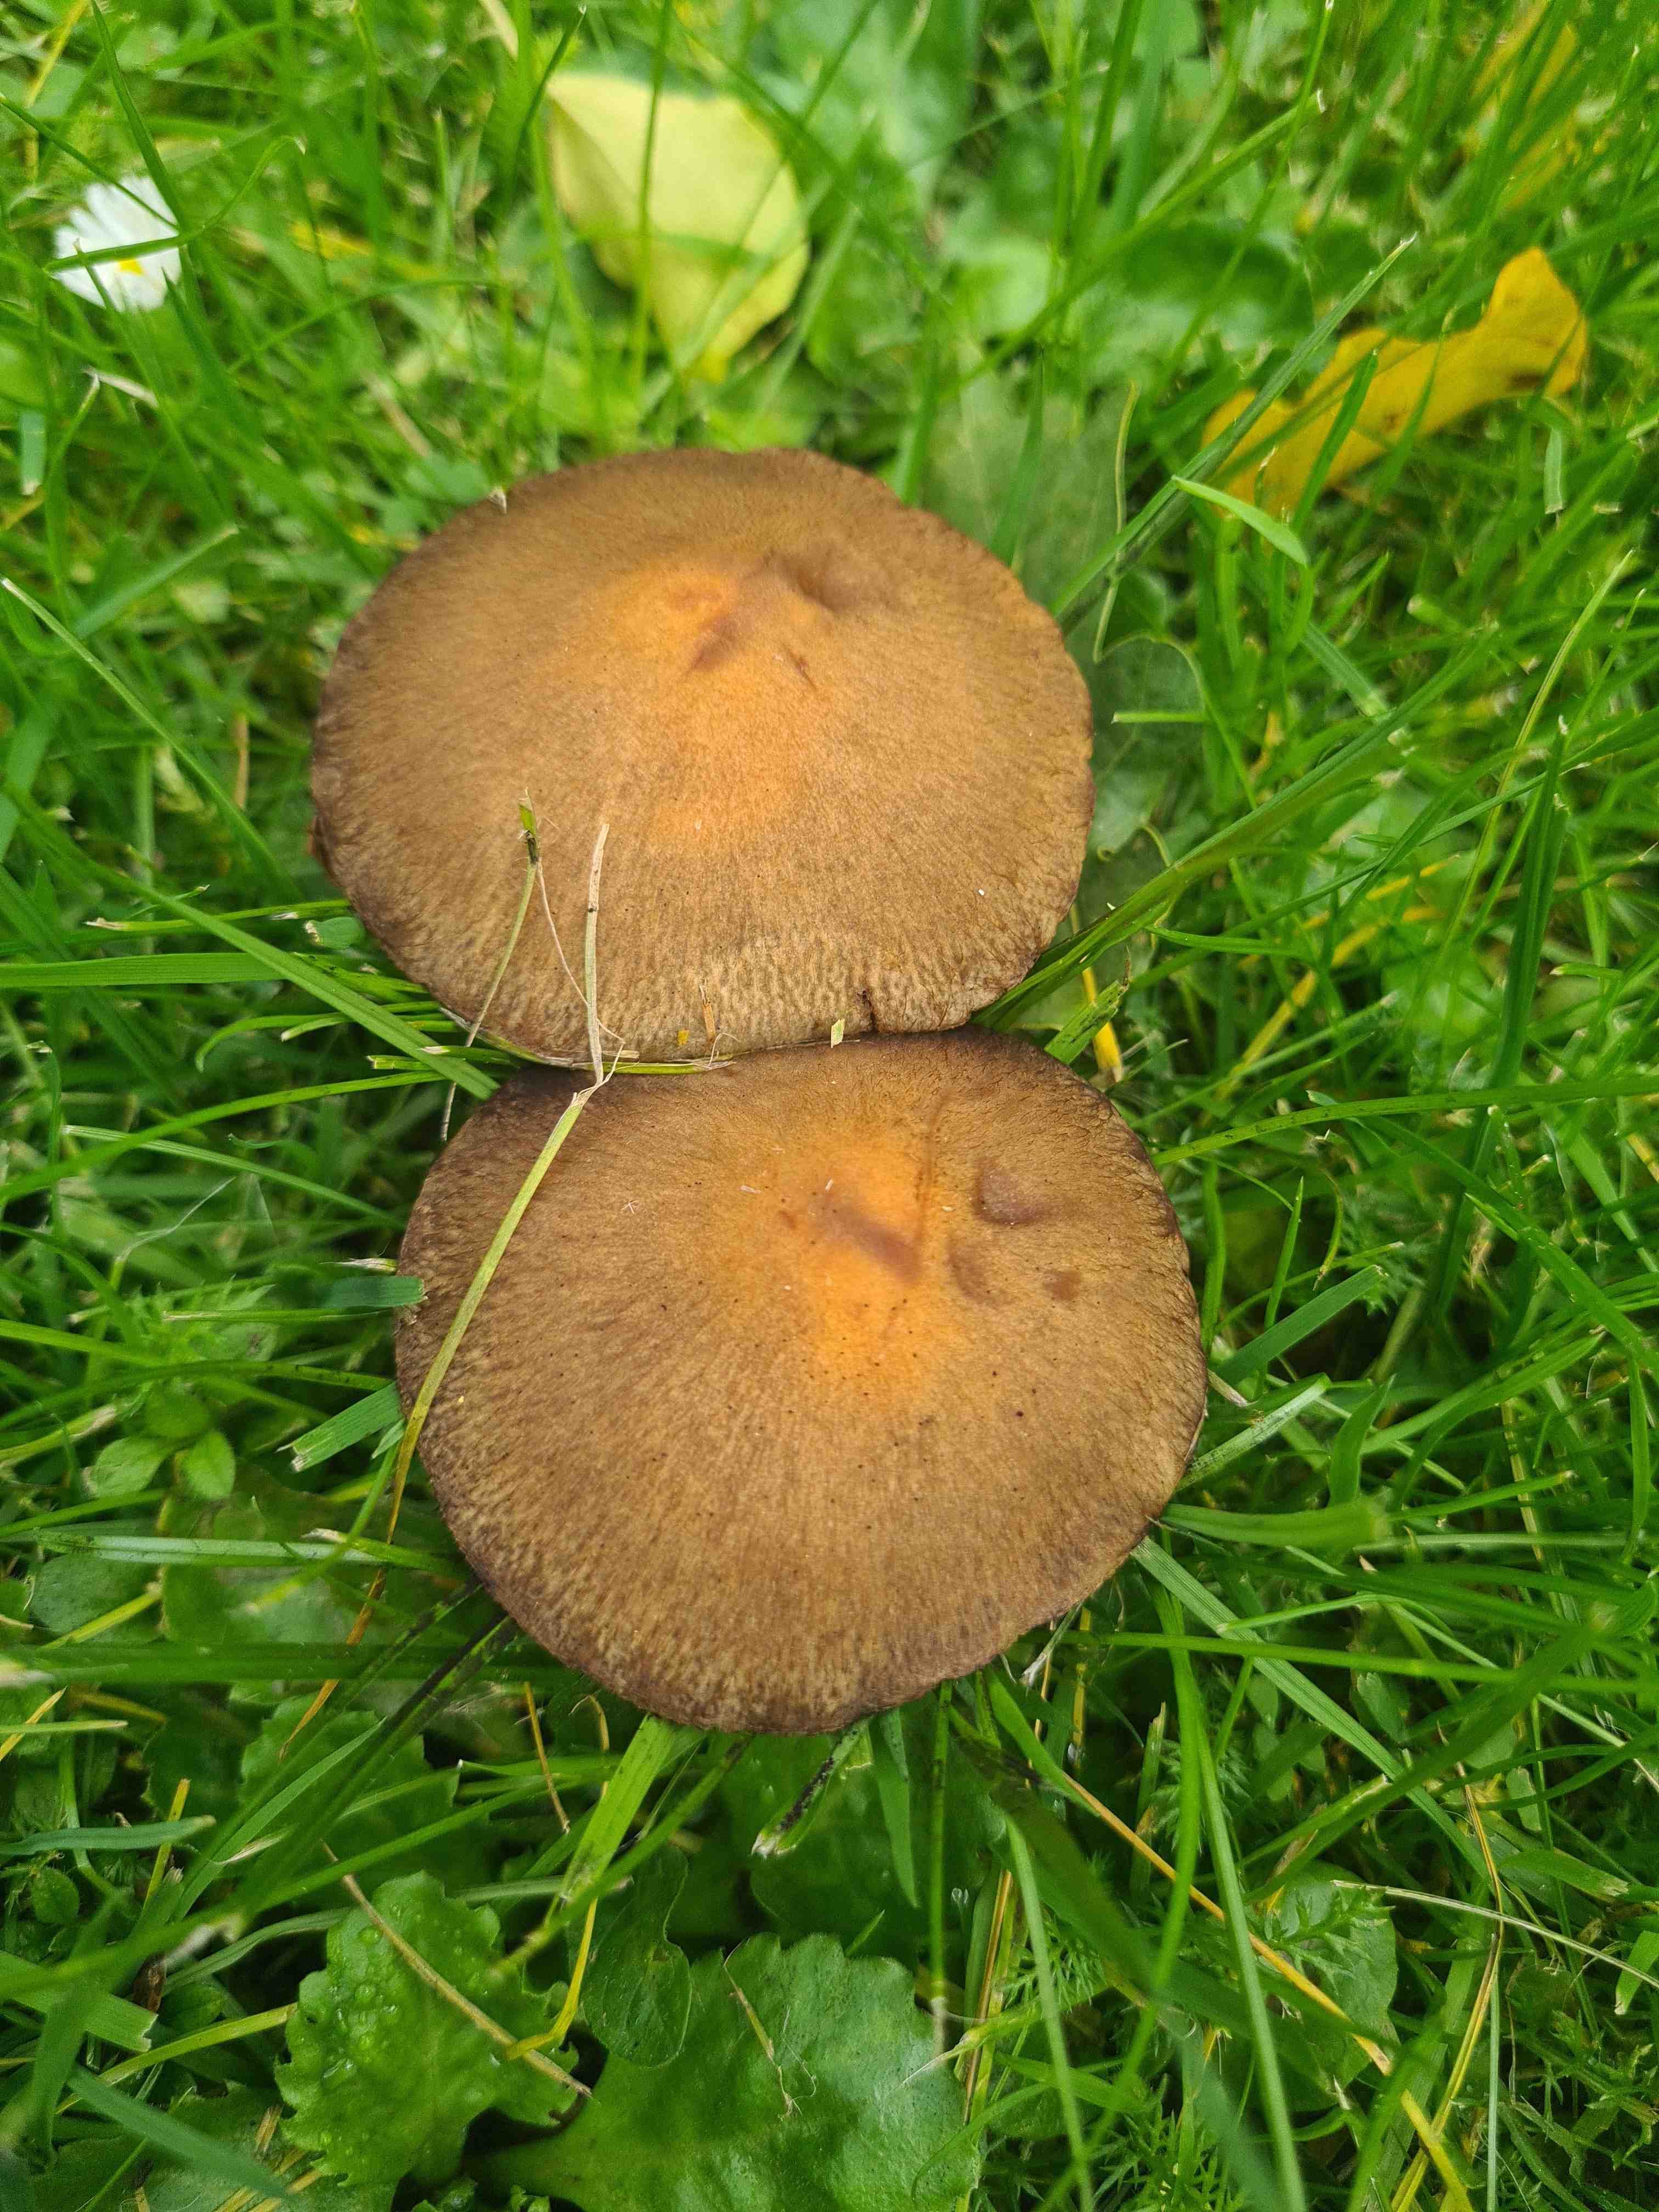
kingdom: Fungi
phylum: Basidiomycota
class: Agaricomycetes
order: Agaricales
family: Psathyrellaceae
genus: Lacrymaria
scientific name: Lacrymaria lacrymabunda
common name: grædende mørkhat
